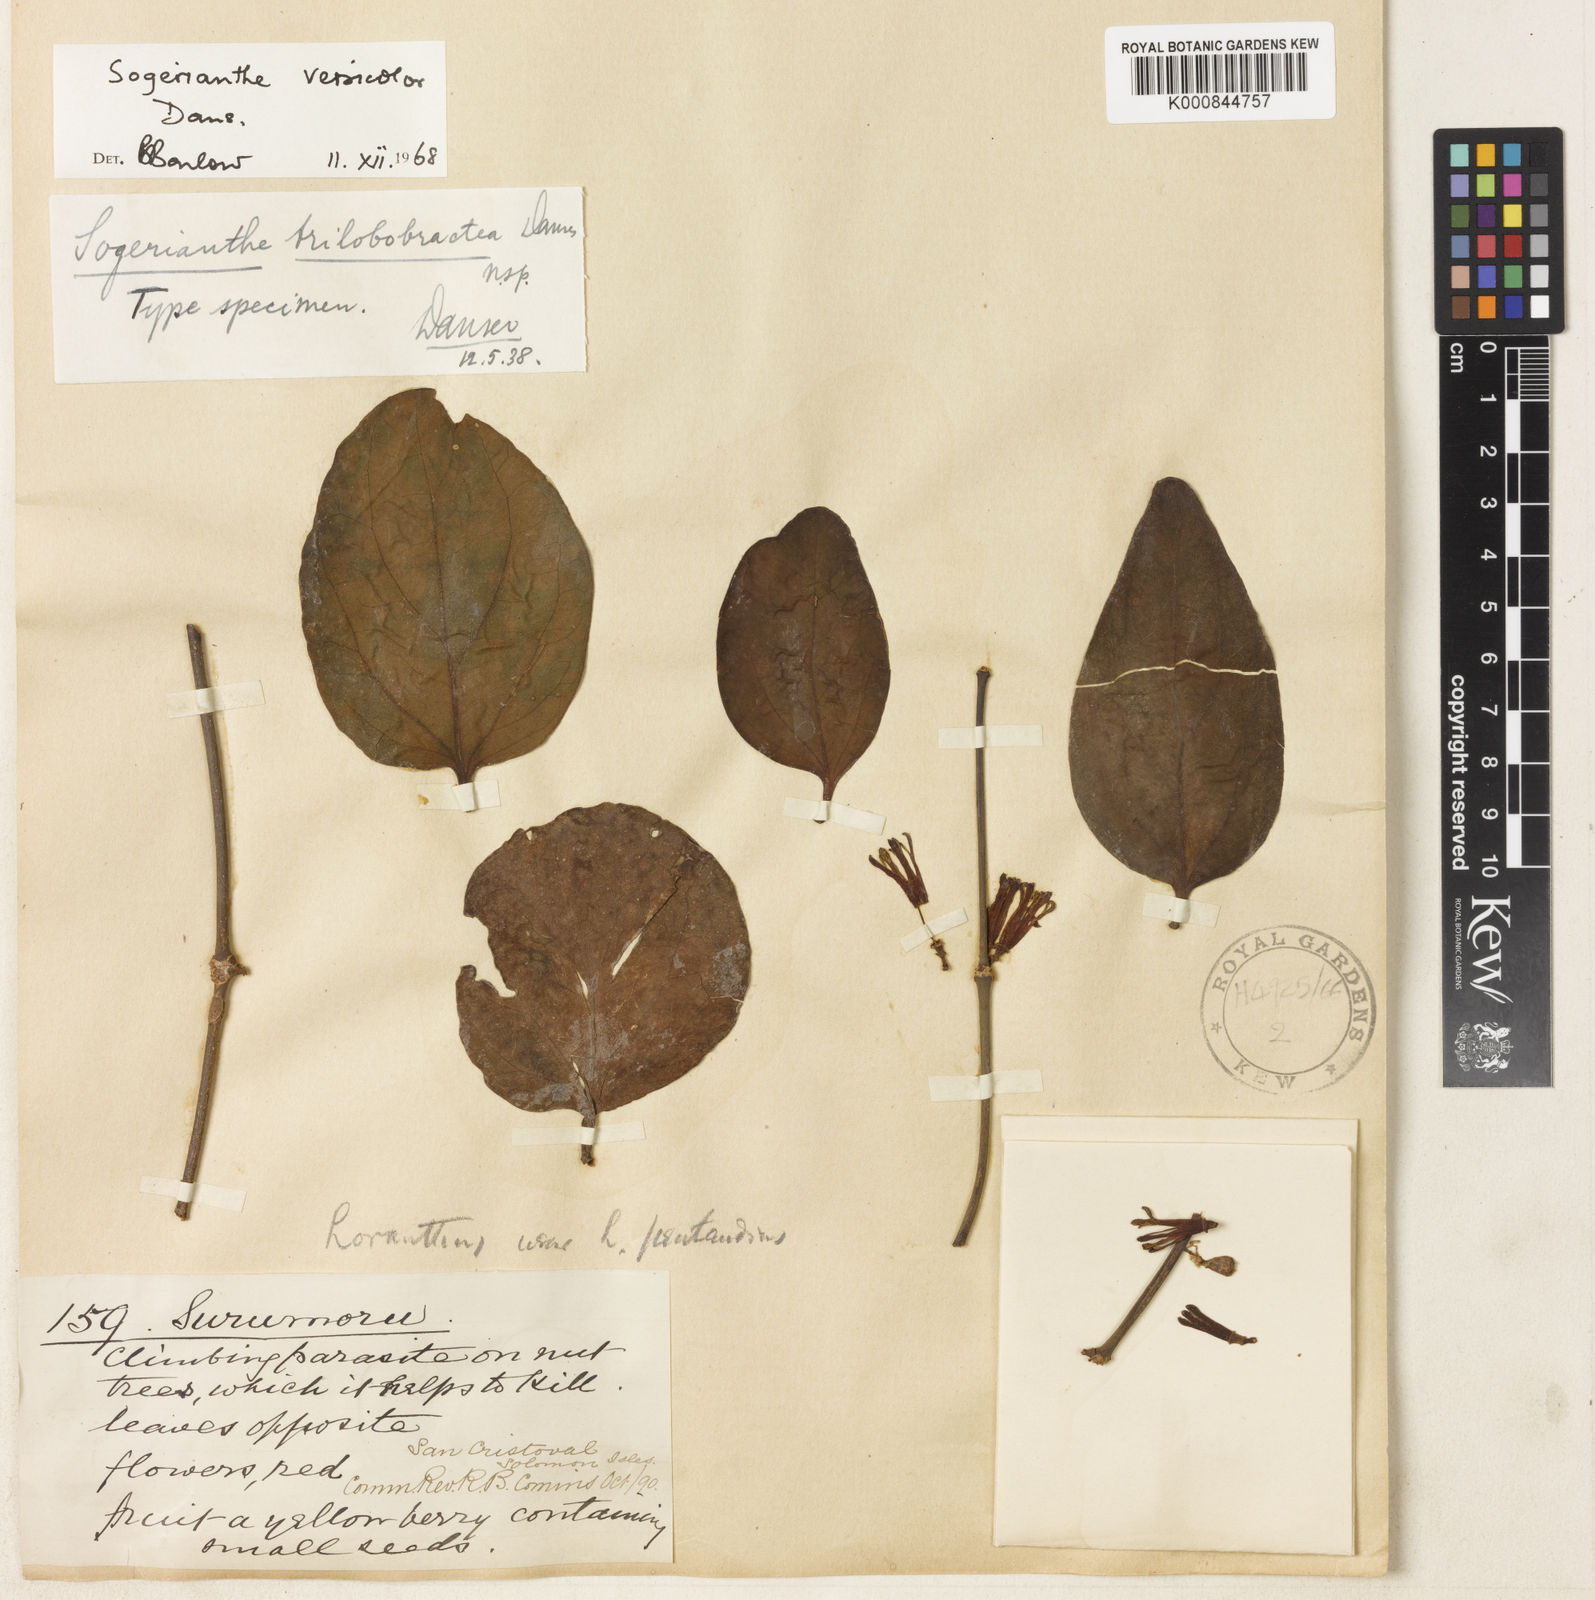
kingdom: Plantae
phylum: Tracheophyta
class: Magnoliopsida
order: Santalales
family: Loranthaceae
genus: Sogerianthe
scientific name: Sogerianthe versicolor
